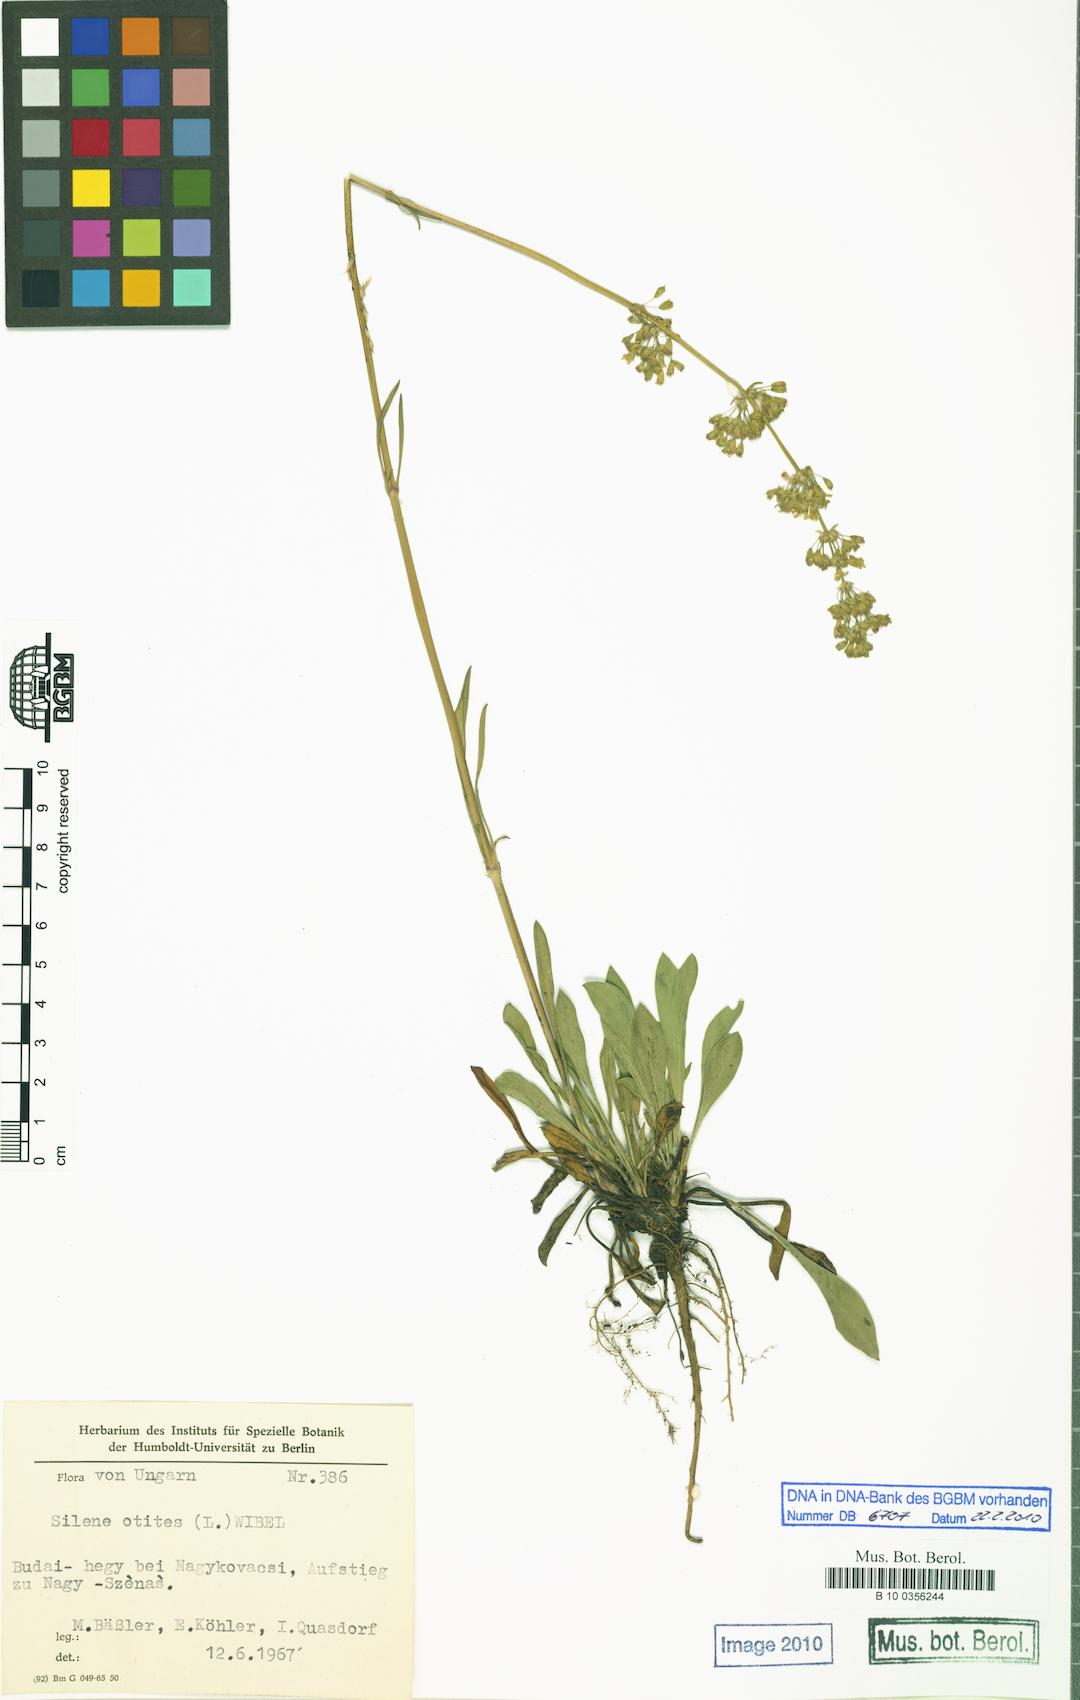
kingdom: Plantae
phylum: Tracheophyta
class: Magnoliopsida
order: Caryophyllales
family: Caryophyllaceae
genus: Silene
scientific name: Silene otites
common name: Spanish catchfly
